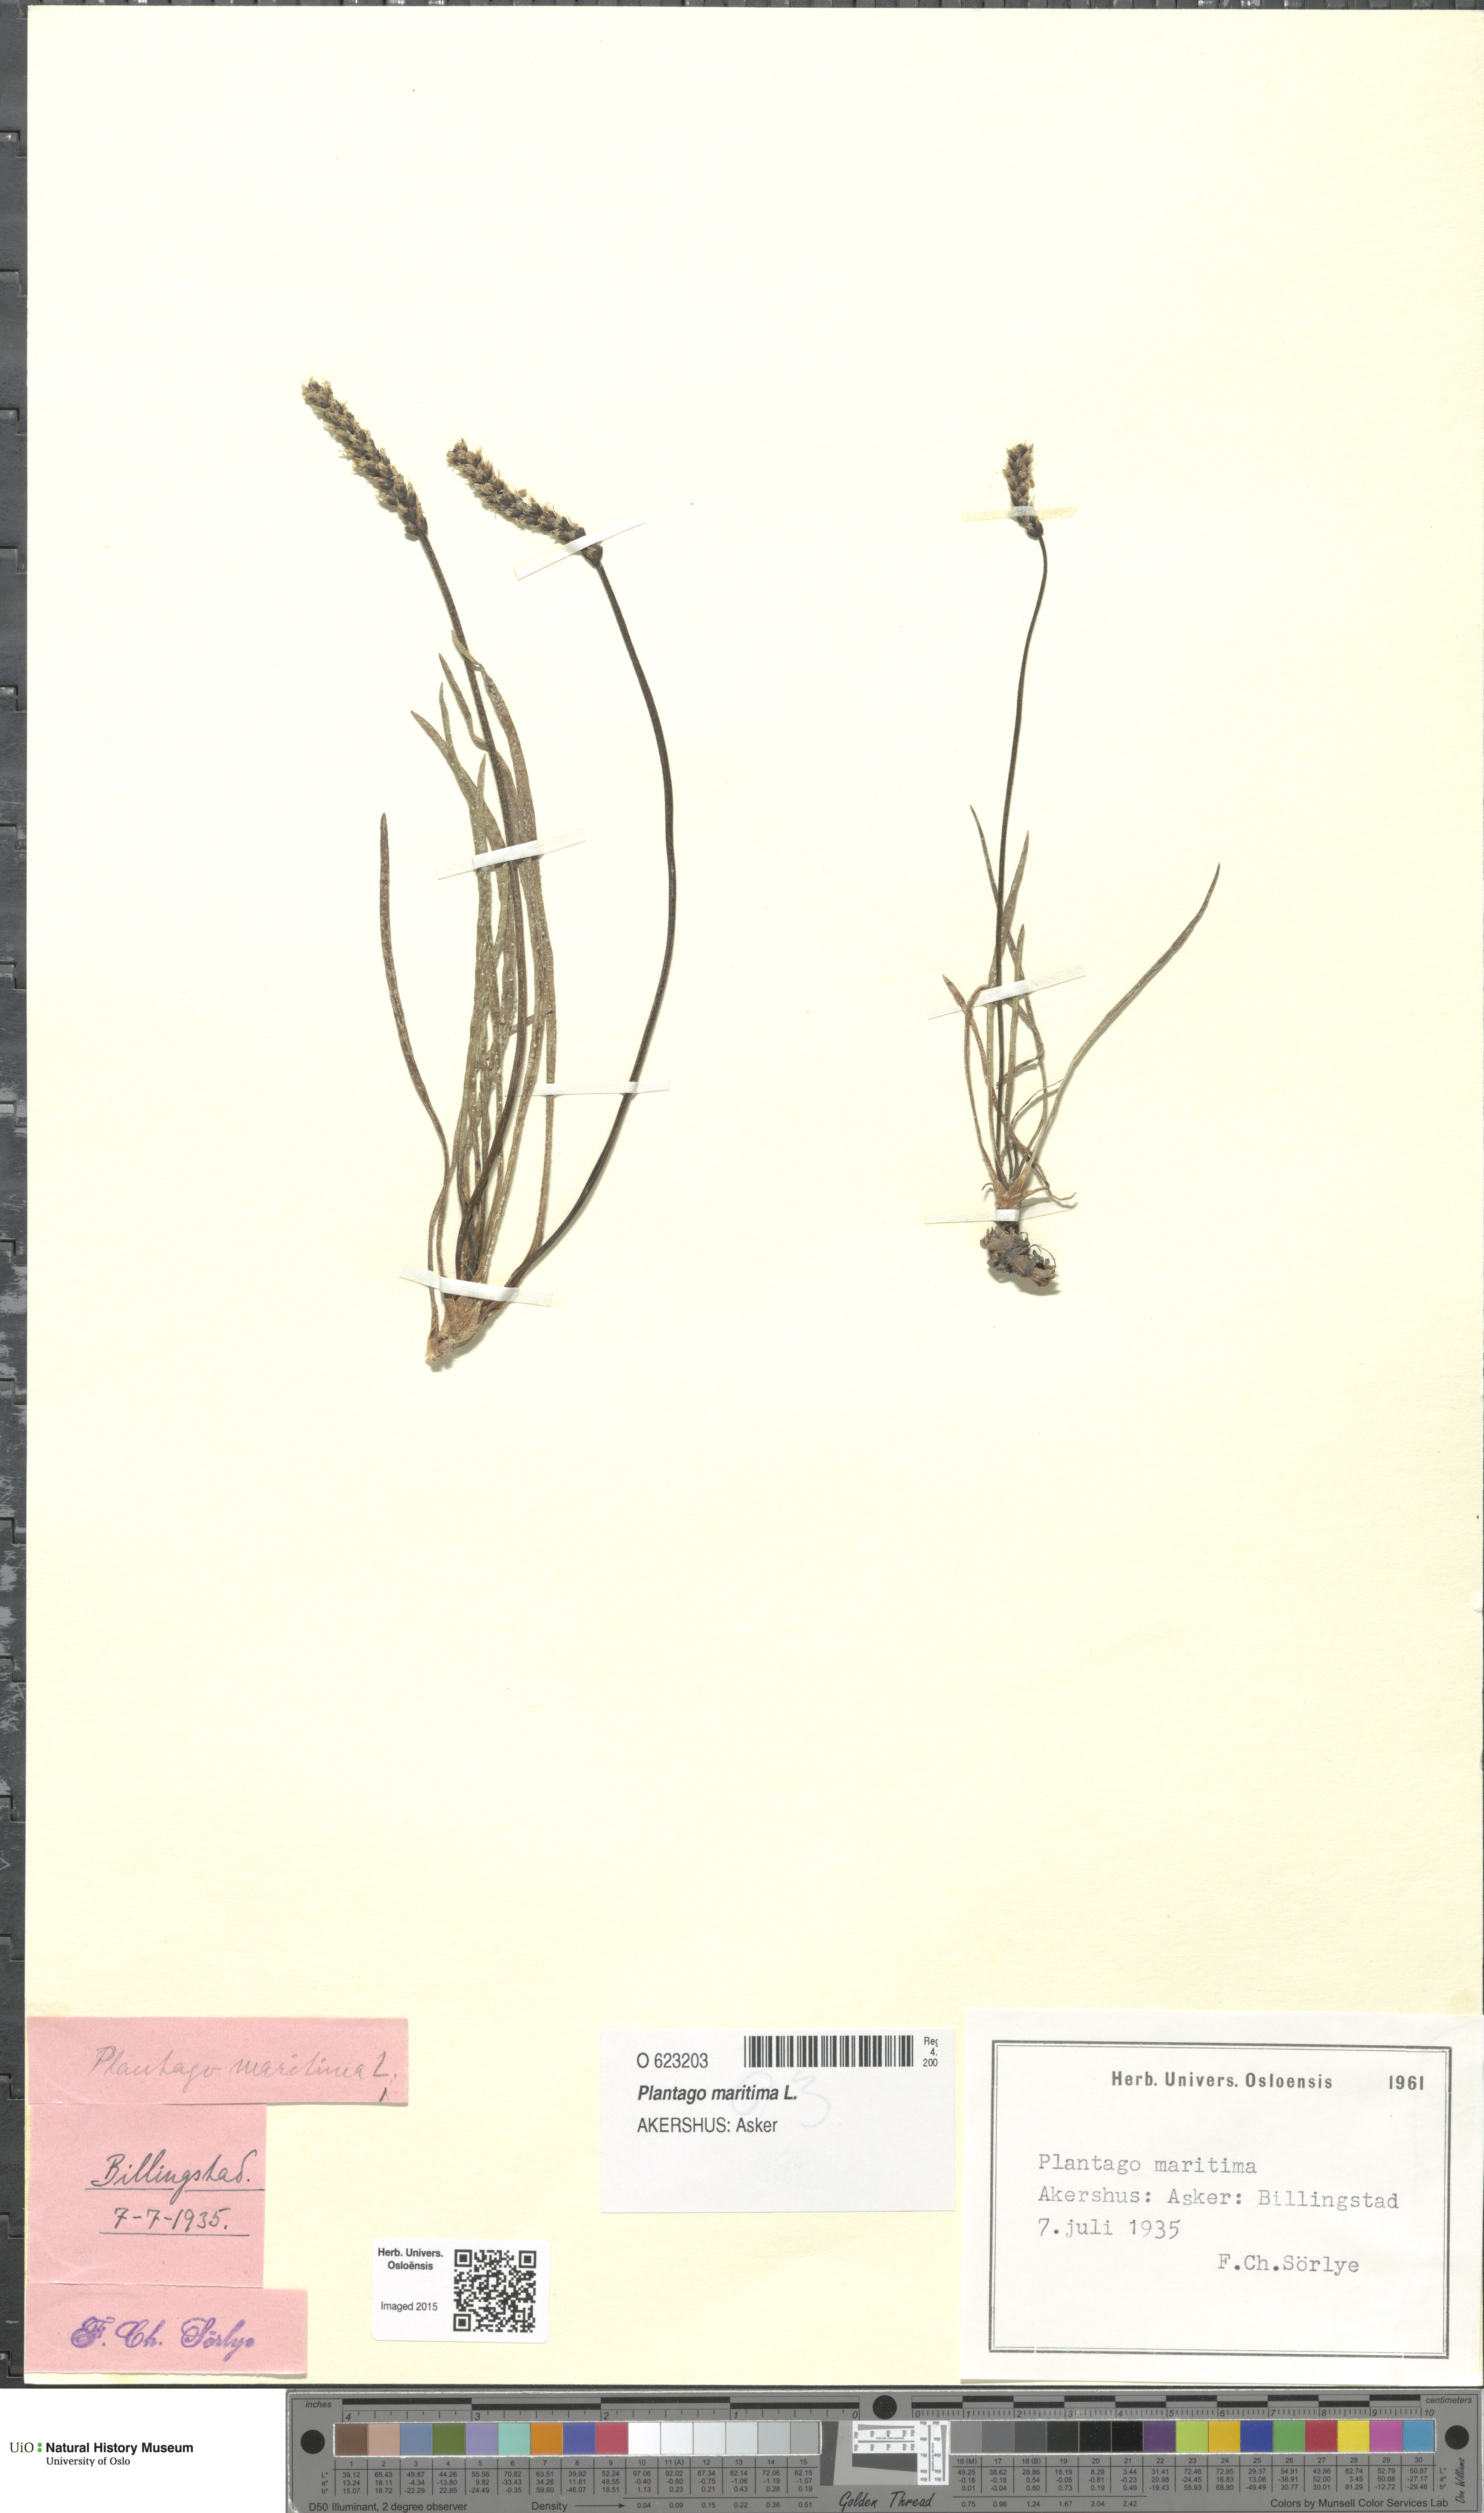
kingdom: Plantae
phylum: Tracheophyta
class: Magnoliopsida
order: Lamiales
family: Plantaginaceae
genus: Plantago
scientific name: Plantago maritima
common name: Sea plantain
